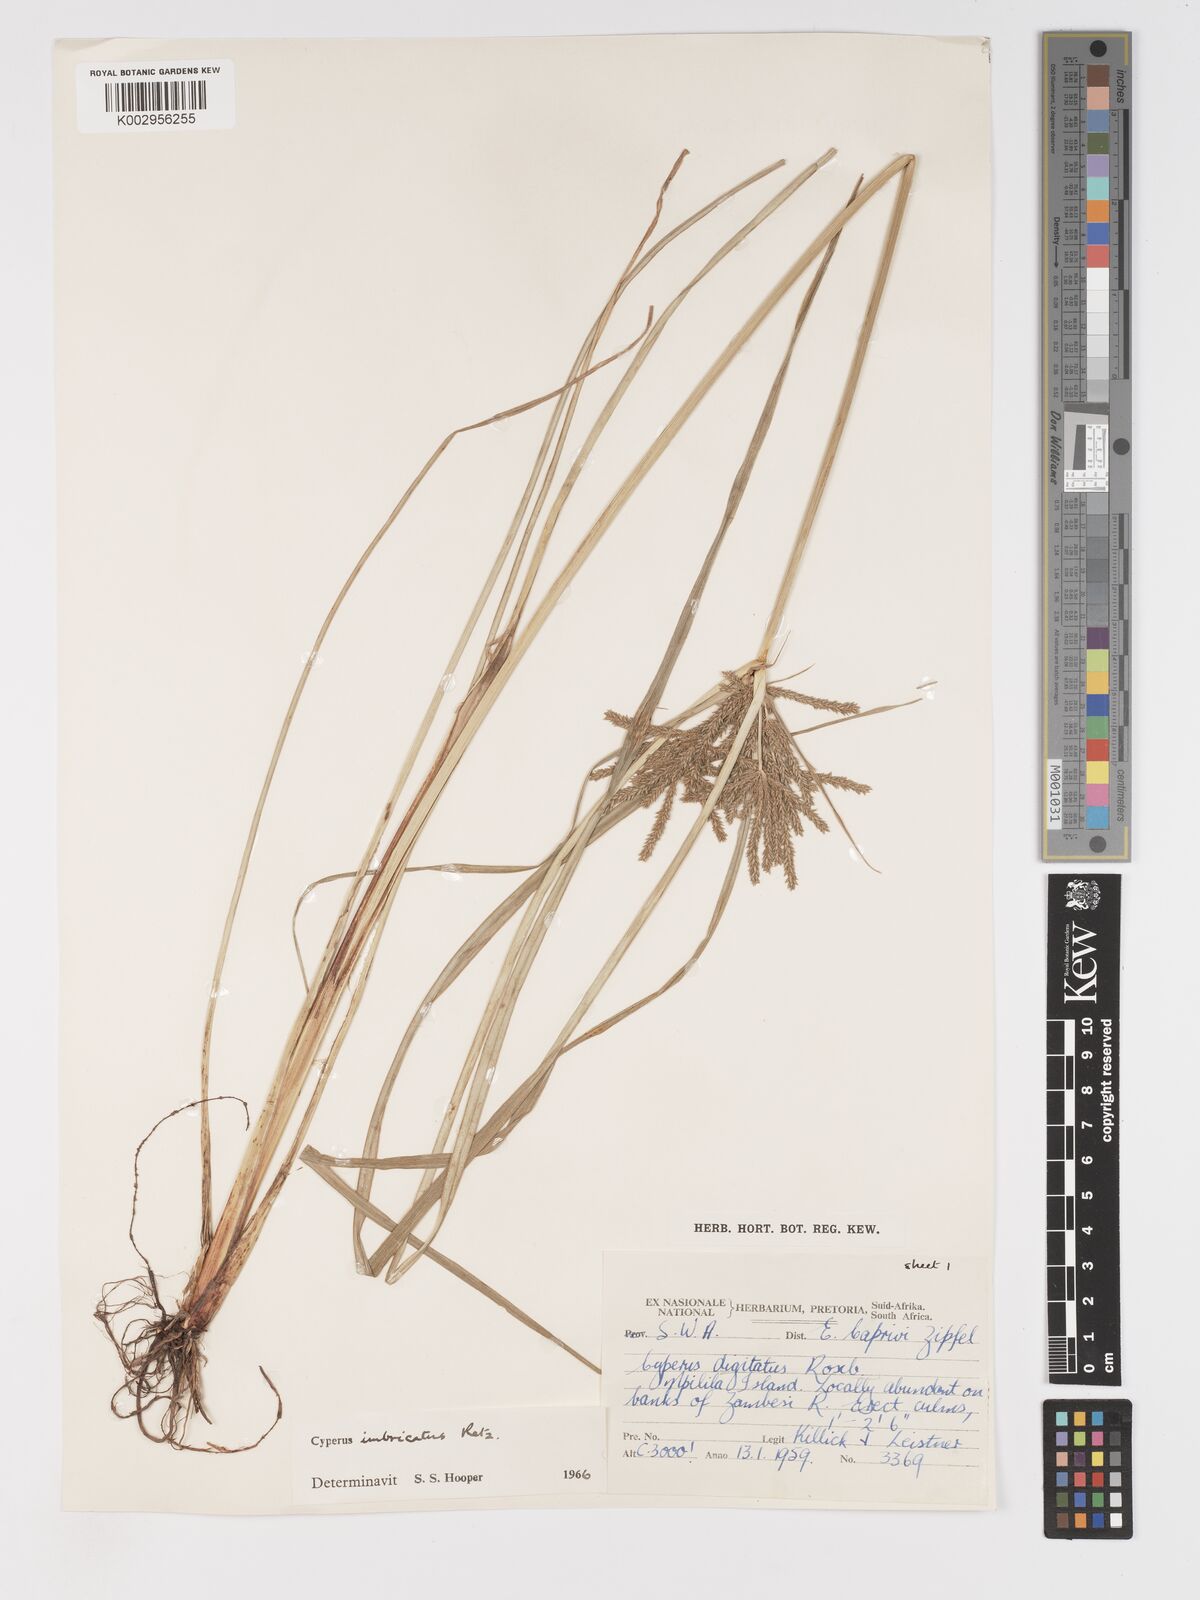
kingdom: Plantae
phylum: Tracheophyta
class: Liliopsida
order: Poales
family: Cyperaceae
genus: Cyperus
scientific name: Cyperus imbricatus
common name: Shingle flatsedge
